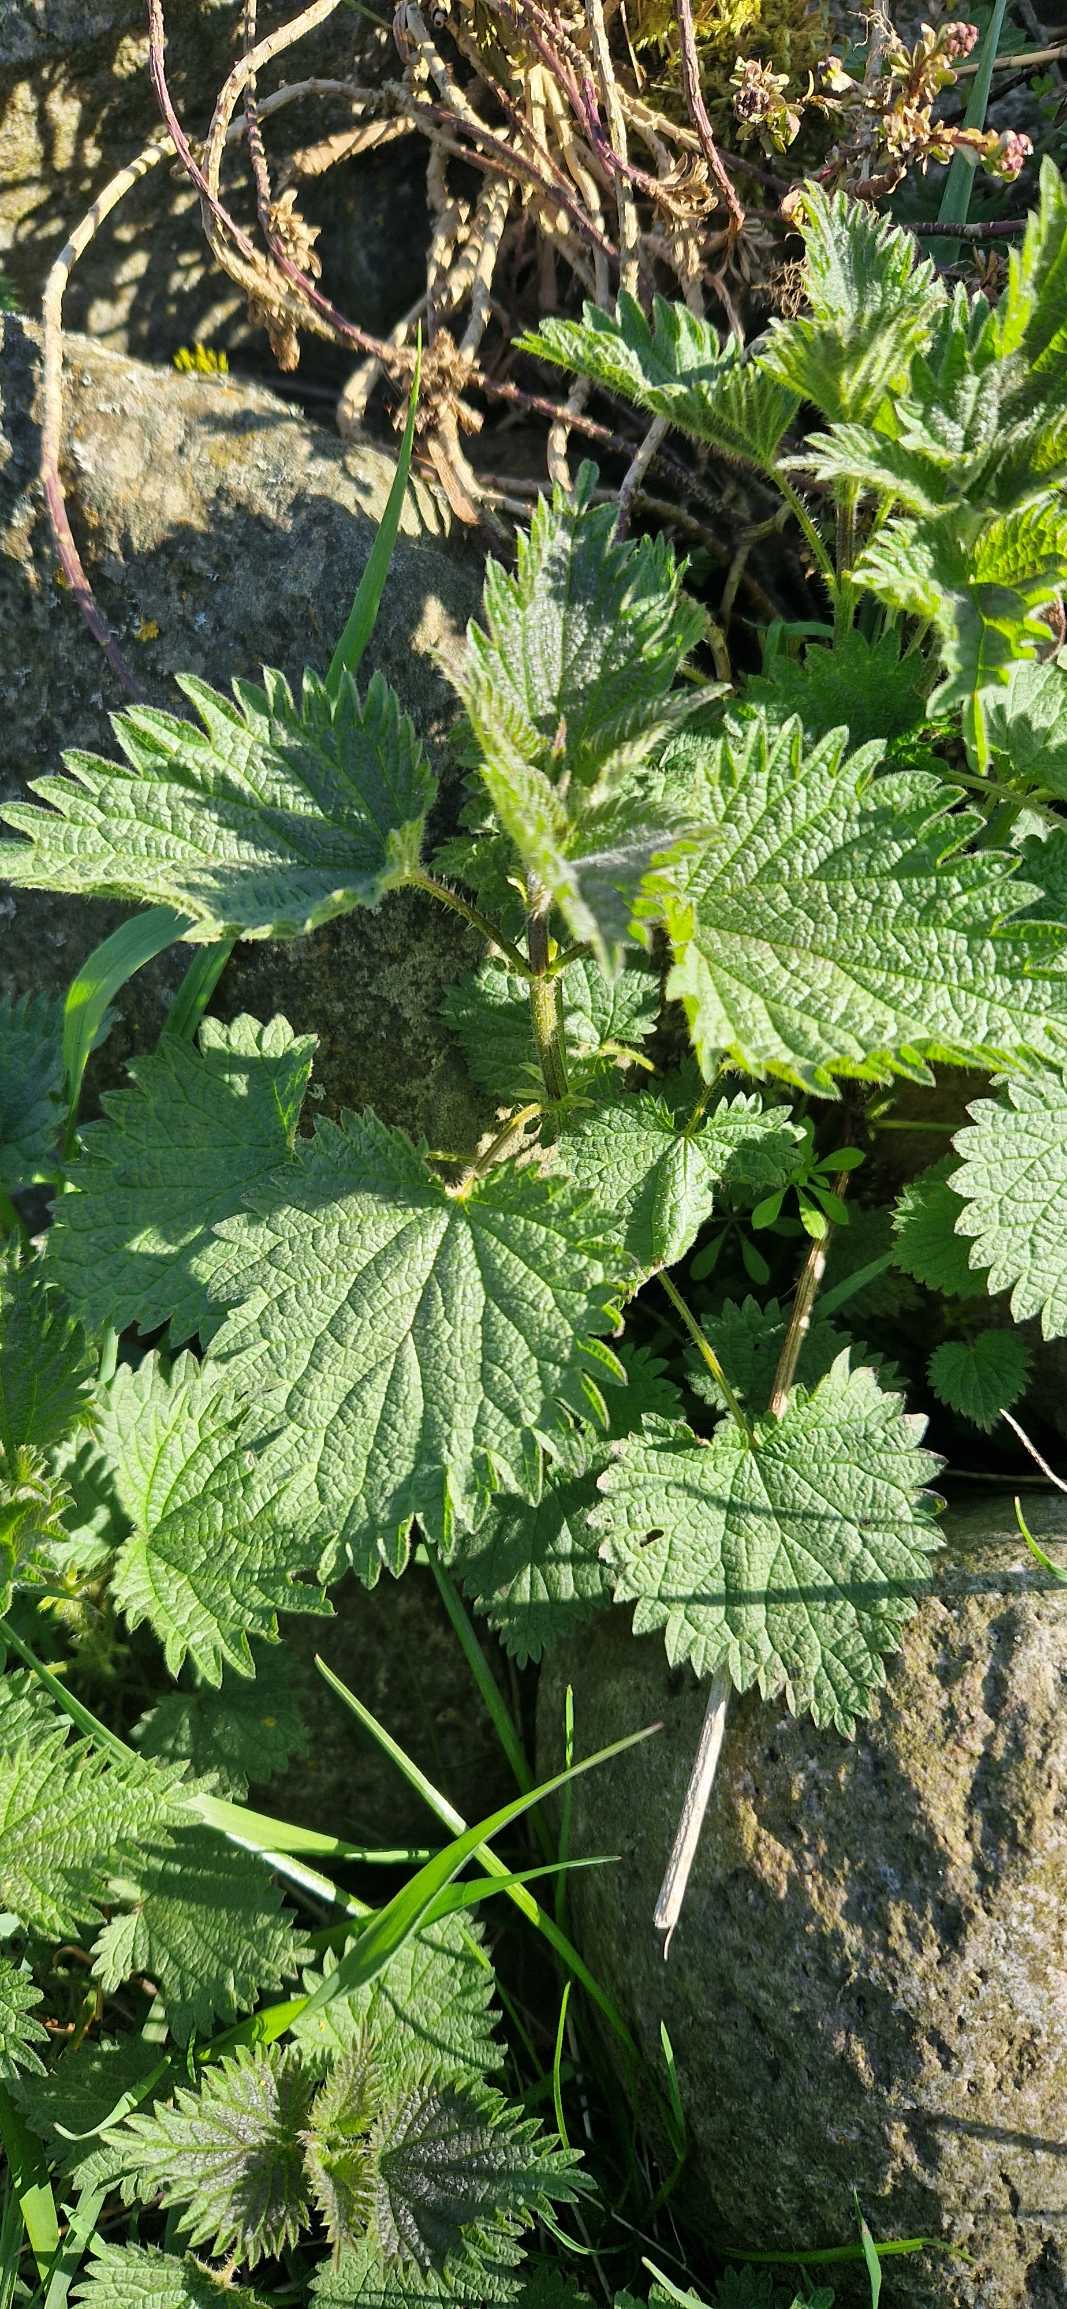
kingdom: Plantae
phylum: Tracheophyta
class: Magnoliopsida
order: Rosales
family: Urticaceae
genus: Urtica
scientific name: Urtica dioica
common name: Stor nælde
